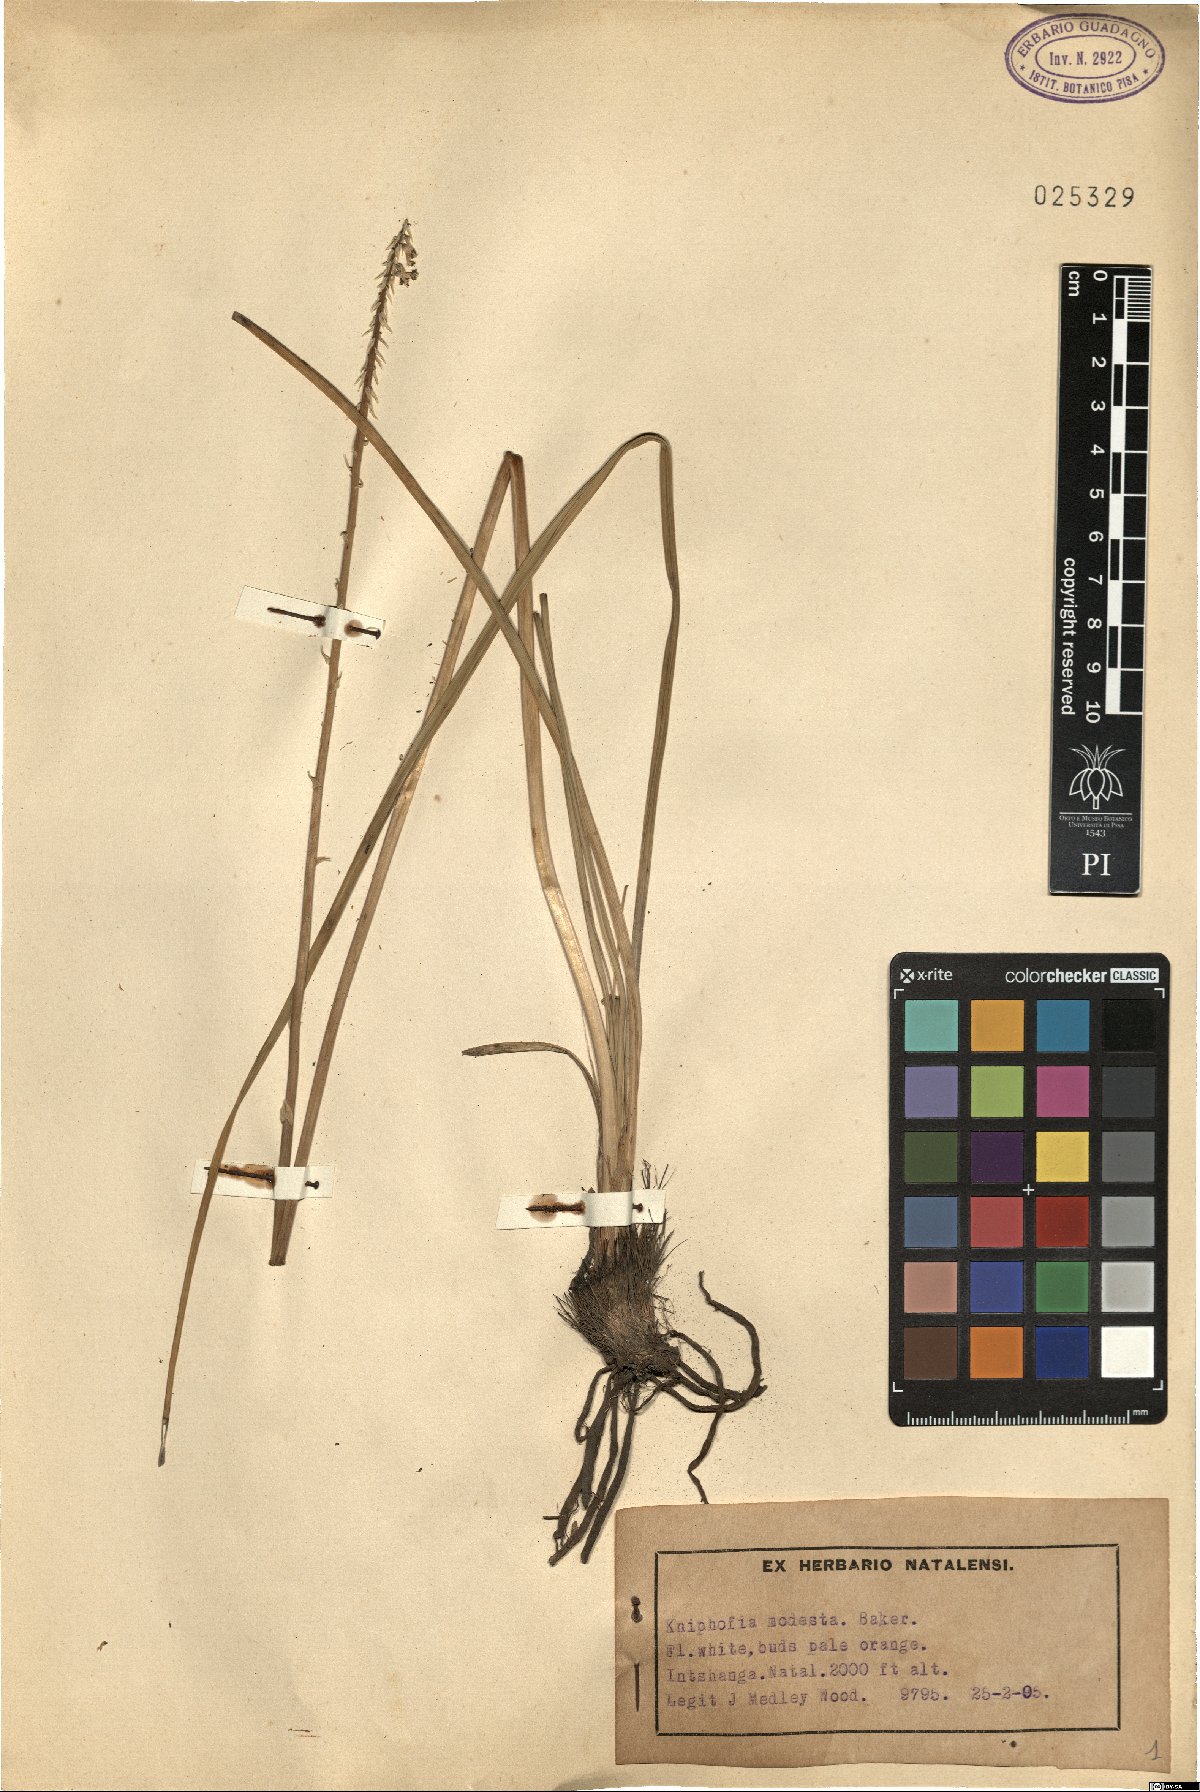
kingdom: Plantae
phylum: Tracheophyta
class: Liliopsida
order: Asparagales
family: Asphodelaceae
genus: Kniphofia
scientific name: Kniphofia parviflora
